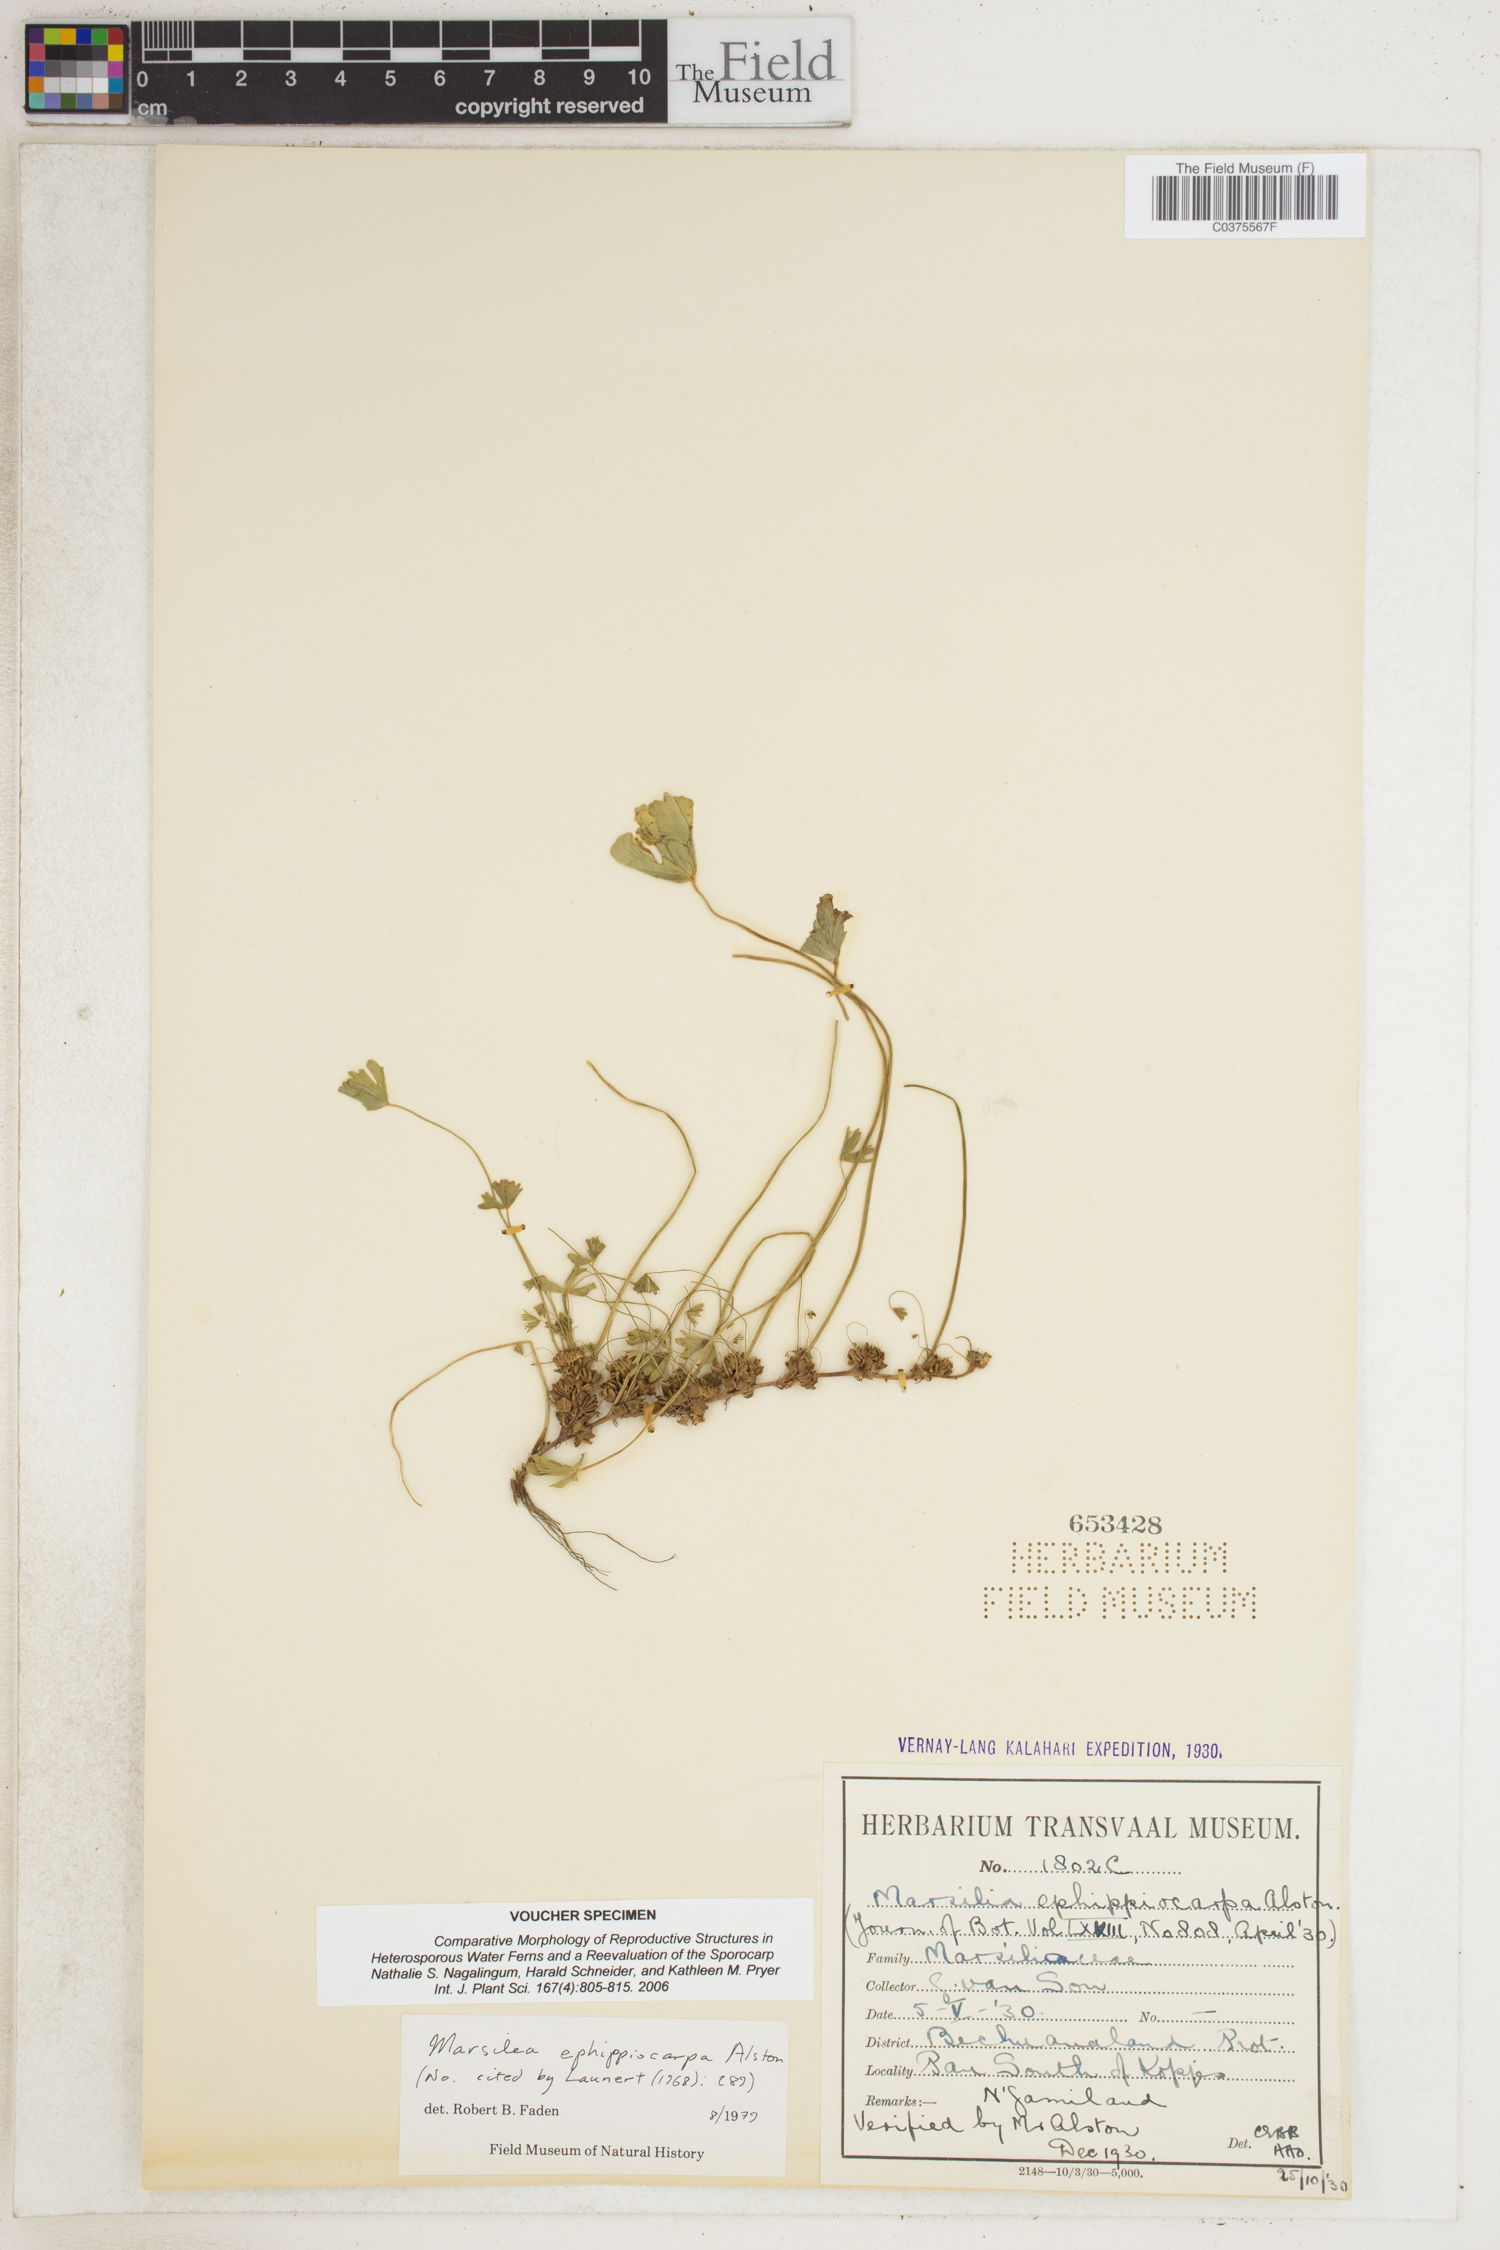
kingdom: Plantae
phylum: Tracheophyta
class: Polypodiopsida
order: Salviniales
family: Marsileaceae
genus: Marsilea
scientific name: Marsilea ephippiocarpa
